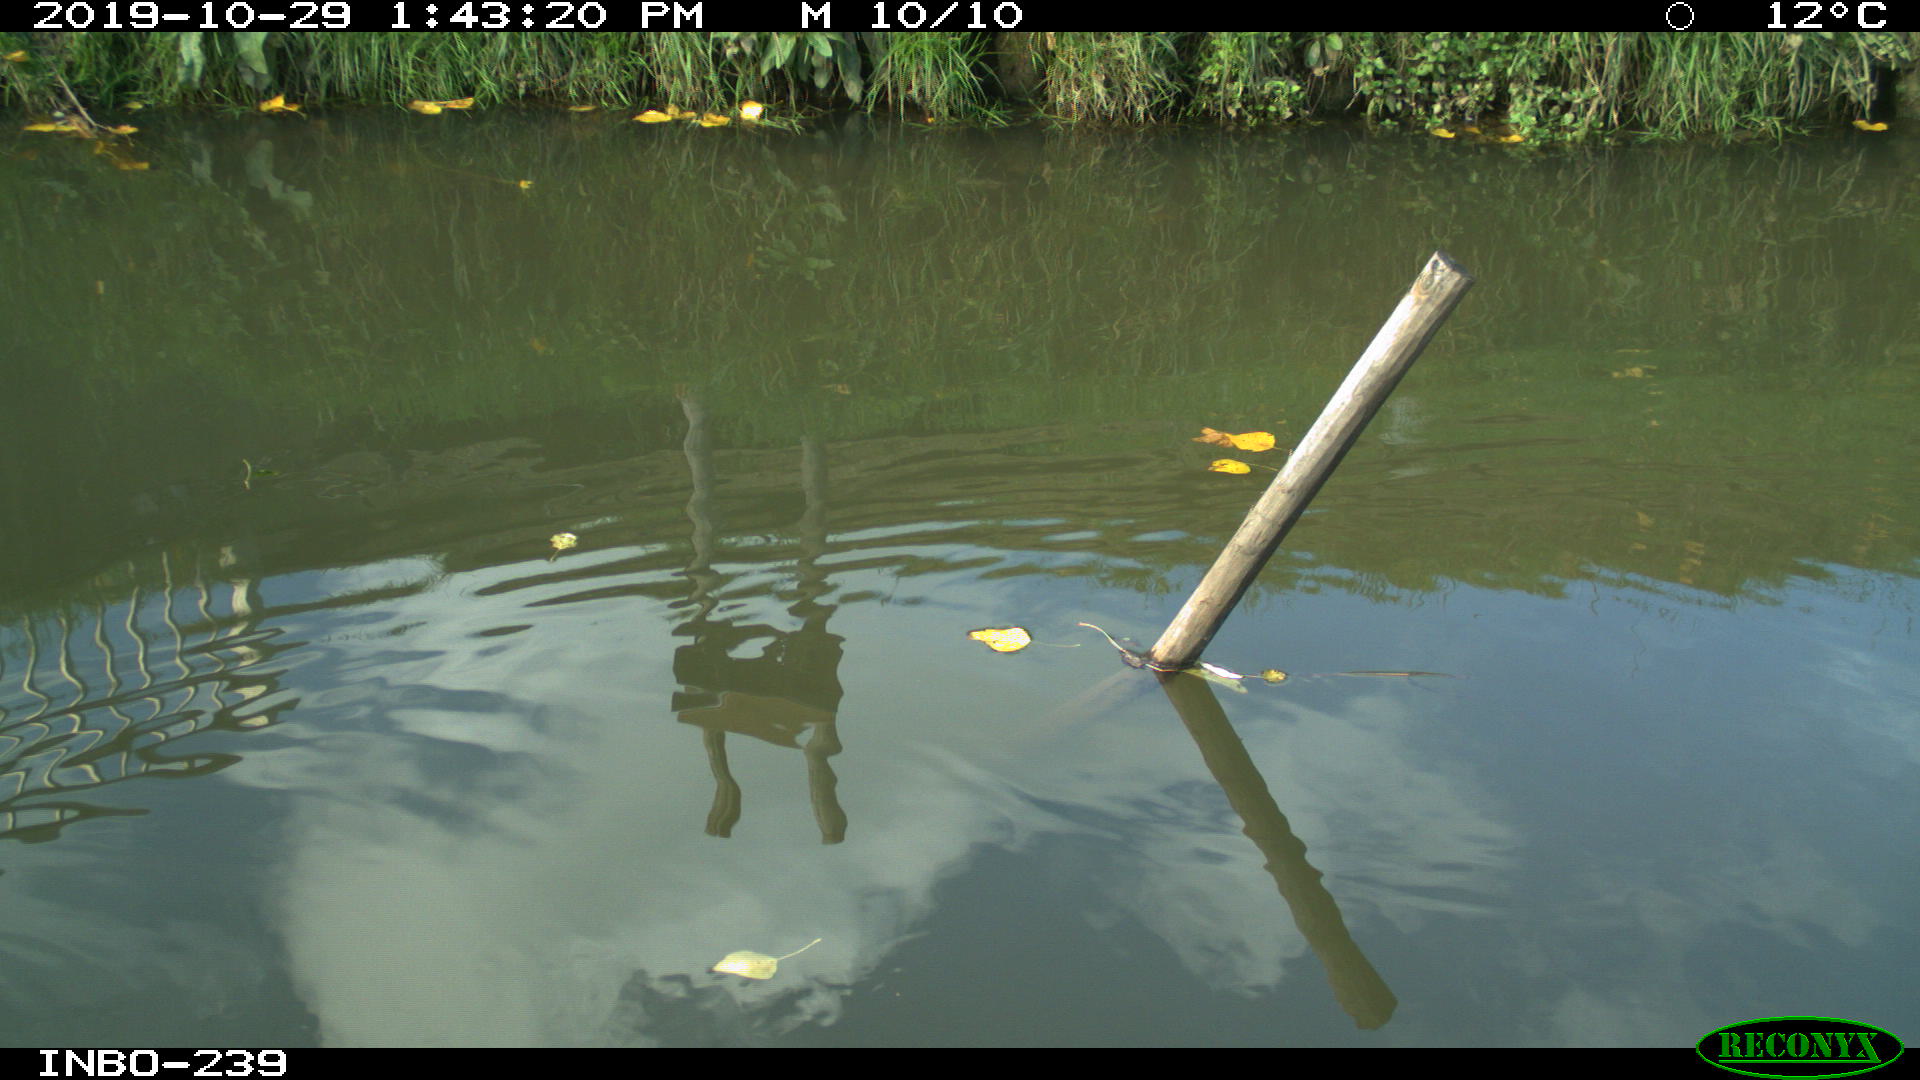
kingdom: Animalia
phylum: Chordata
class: Aves
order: Gruiformes
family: Rallidae
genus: Gallinula
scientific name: Gallinula chloropus
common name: Common moorhen
